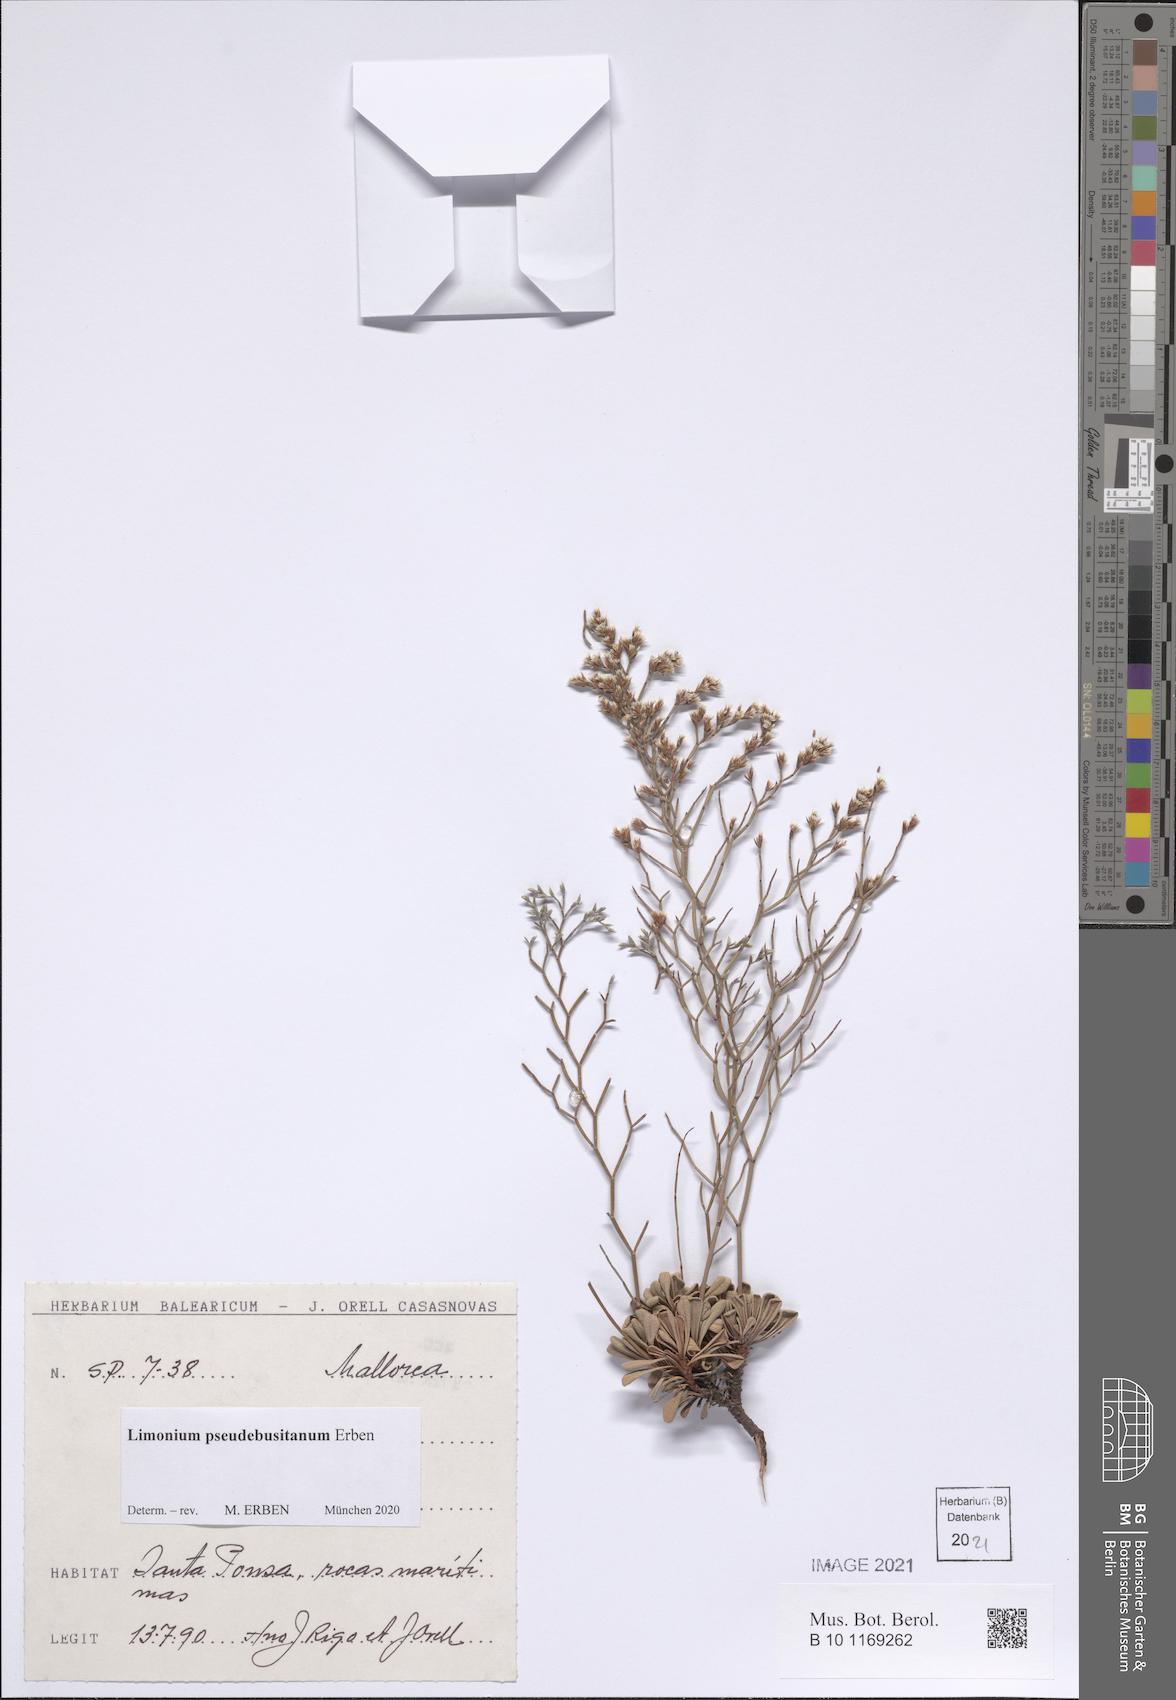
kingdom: Plantae
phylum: Tracheophyta
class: Magnoliopsida
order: Caryophyllales
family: Plumbaginaceae
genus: Limonium
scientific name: Limonium pseudebusitanum
